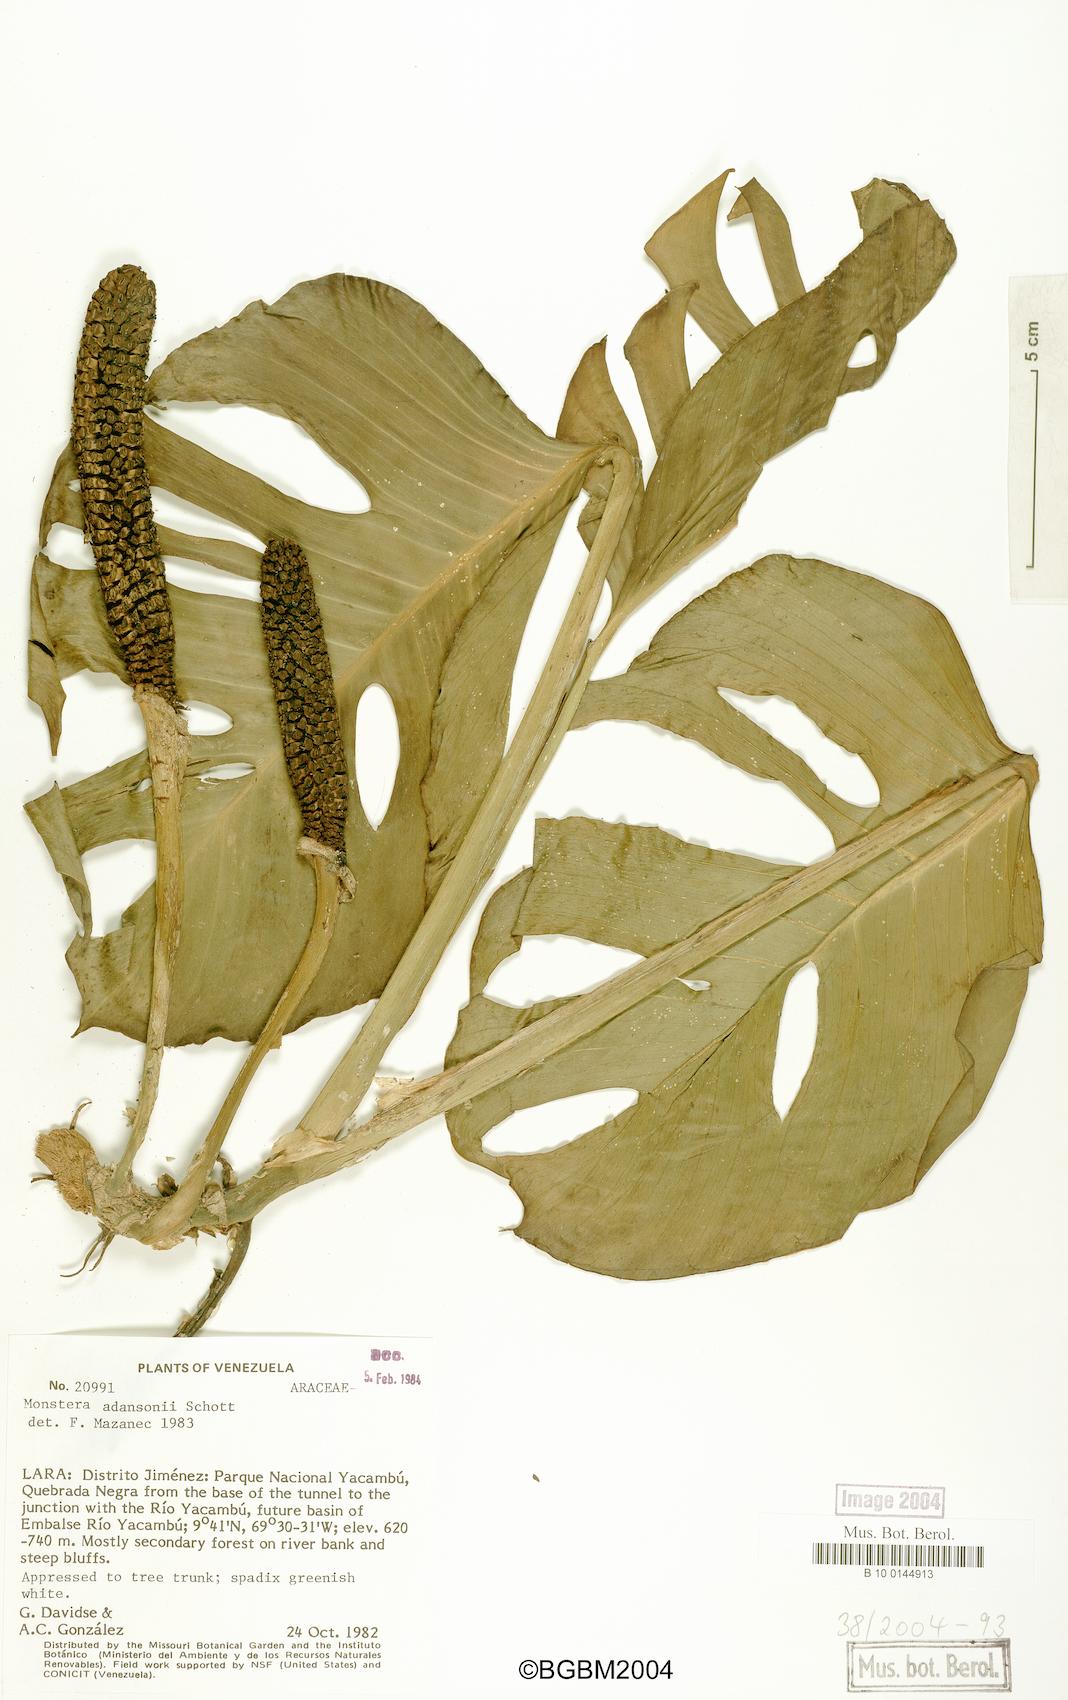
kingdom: Plantae
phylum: Tracheophyta
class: Liliopsida
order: Alismatales
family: Araceae
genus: Monstera
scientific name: Monstera adansonii
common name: Tarovine
